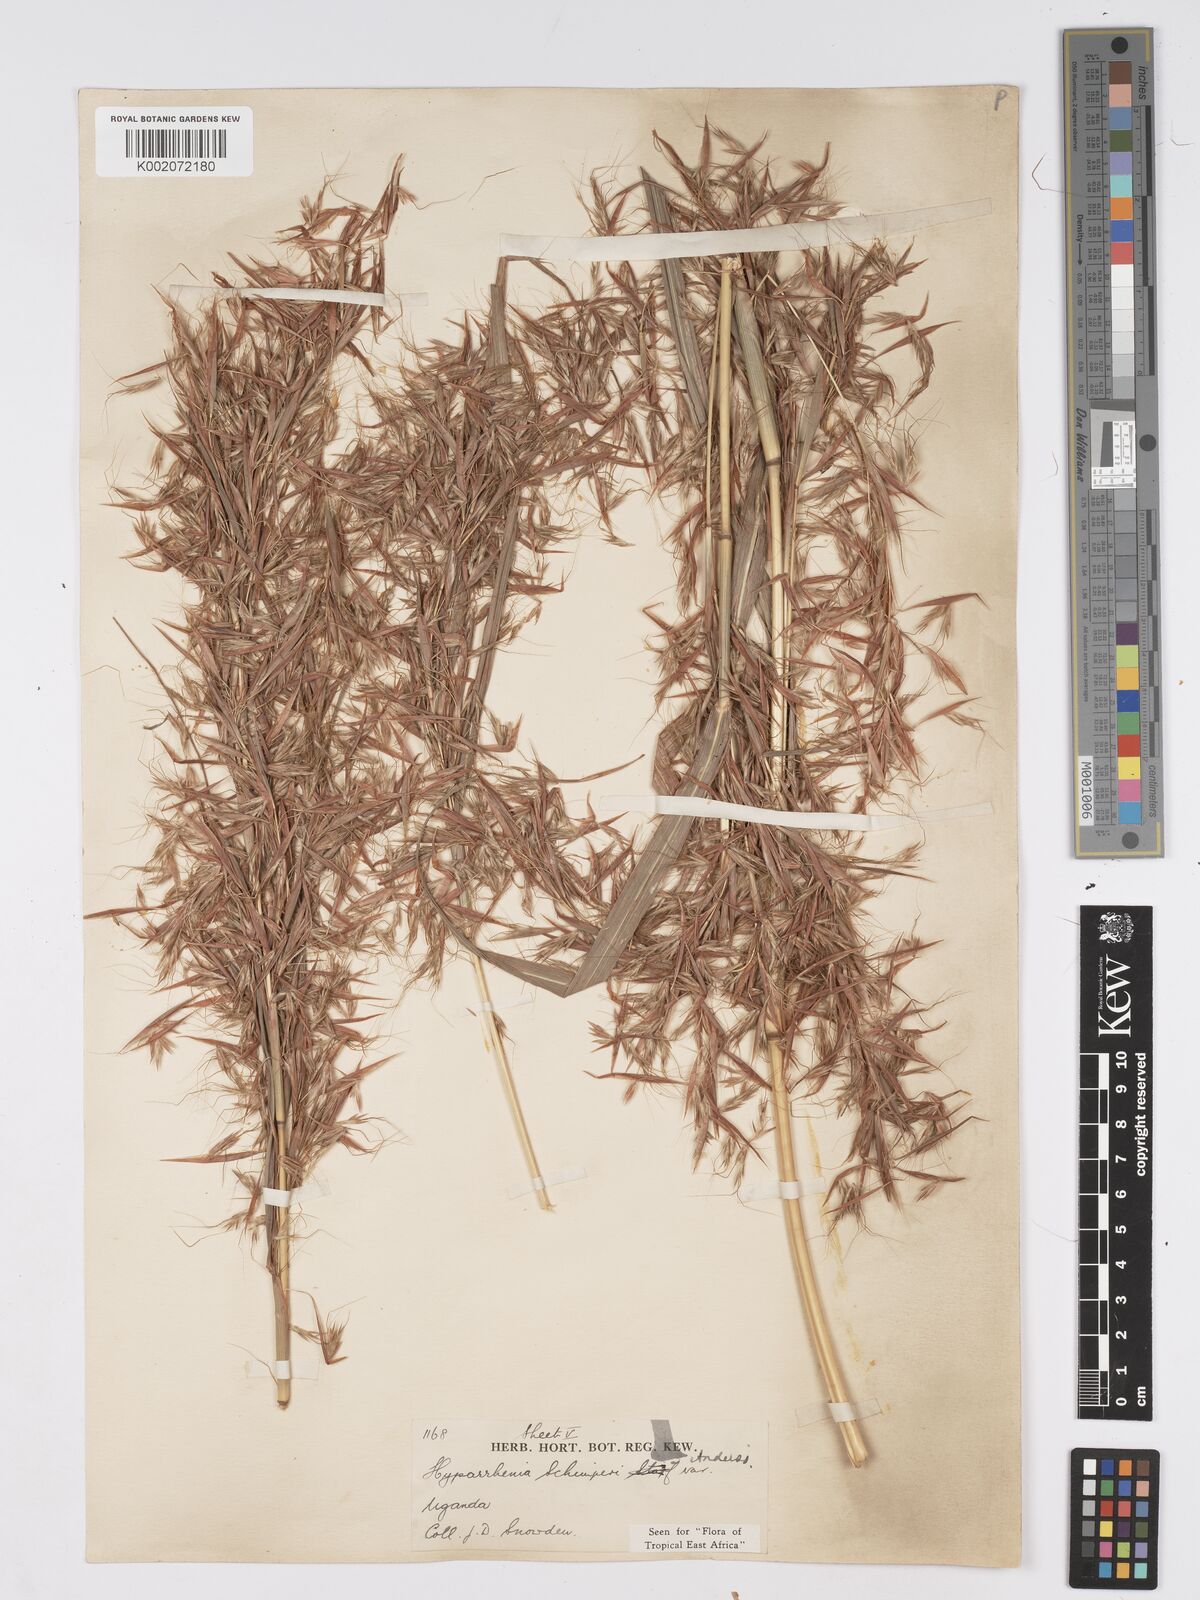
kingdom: Plantae
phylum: Tracheophyta
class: Liliopsida
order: Poales
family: Poaceae
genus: Hyparrhenia
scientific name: Hyparrhenia schimperi
